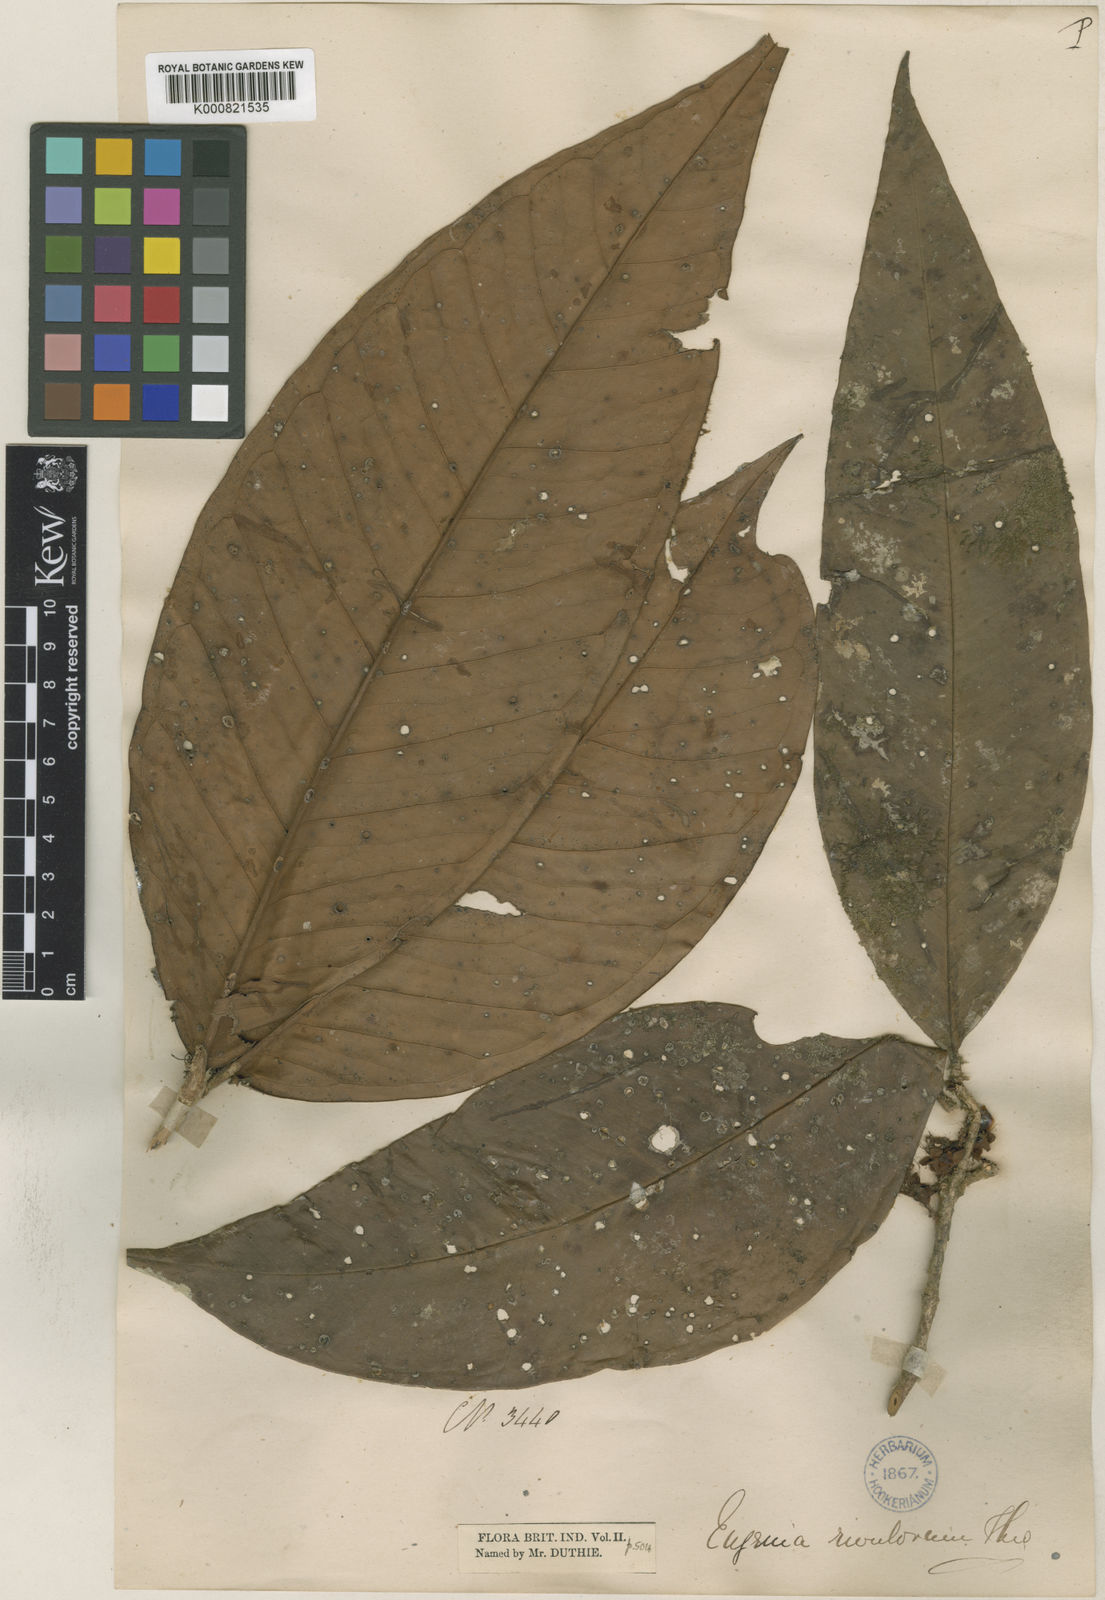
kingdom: Plantae
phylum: Tracheophyta
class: Magnoliopsida
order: Myrtales
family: Myrtaceae
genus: Eugenia
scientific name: Eugenia rivulorum
